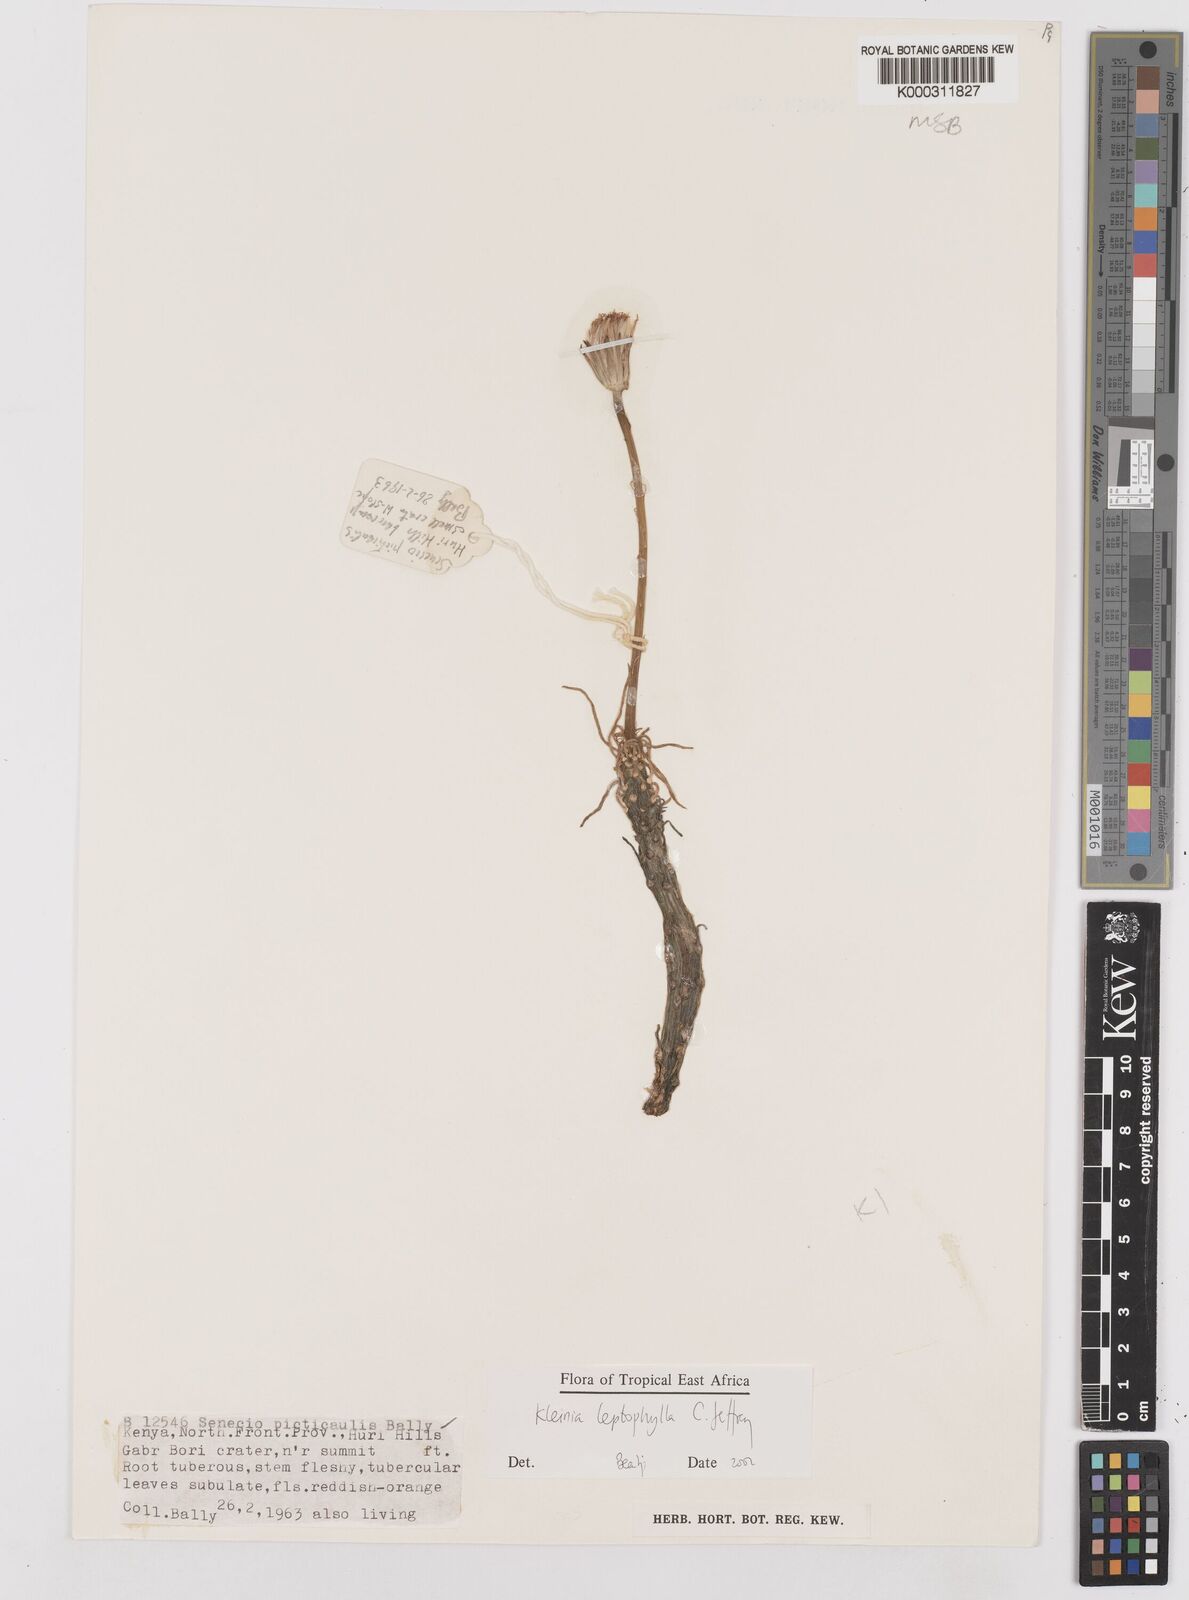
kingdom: Plantae
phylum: Tracheophyta
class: Magnoliopsida
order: Asterales
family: Asteraceae
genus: Kleinia
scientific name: Kleinia leptophylla
